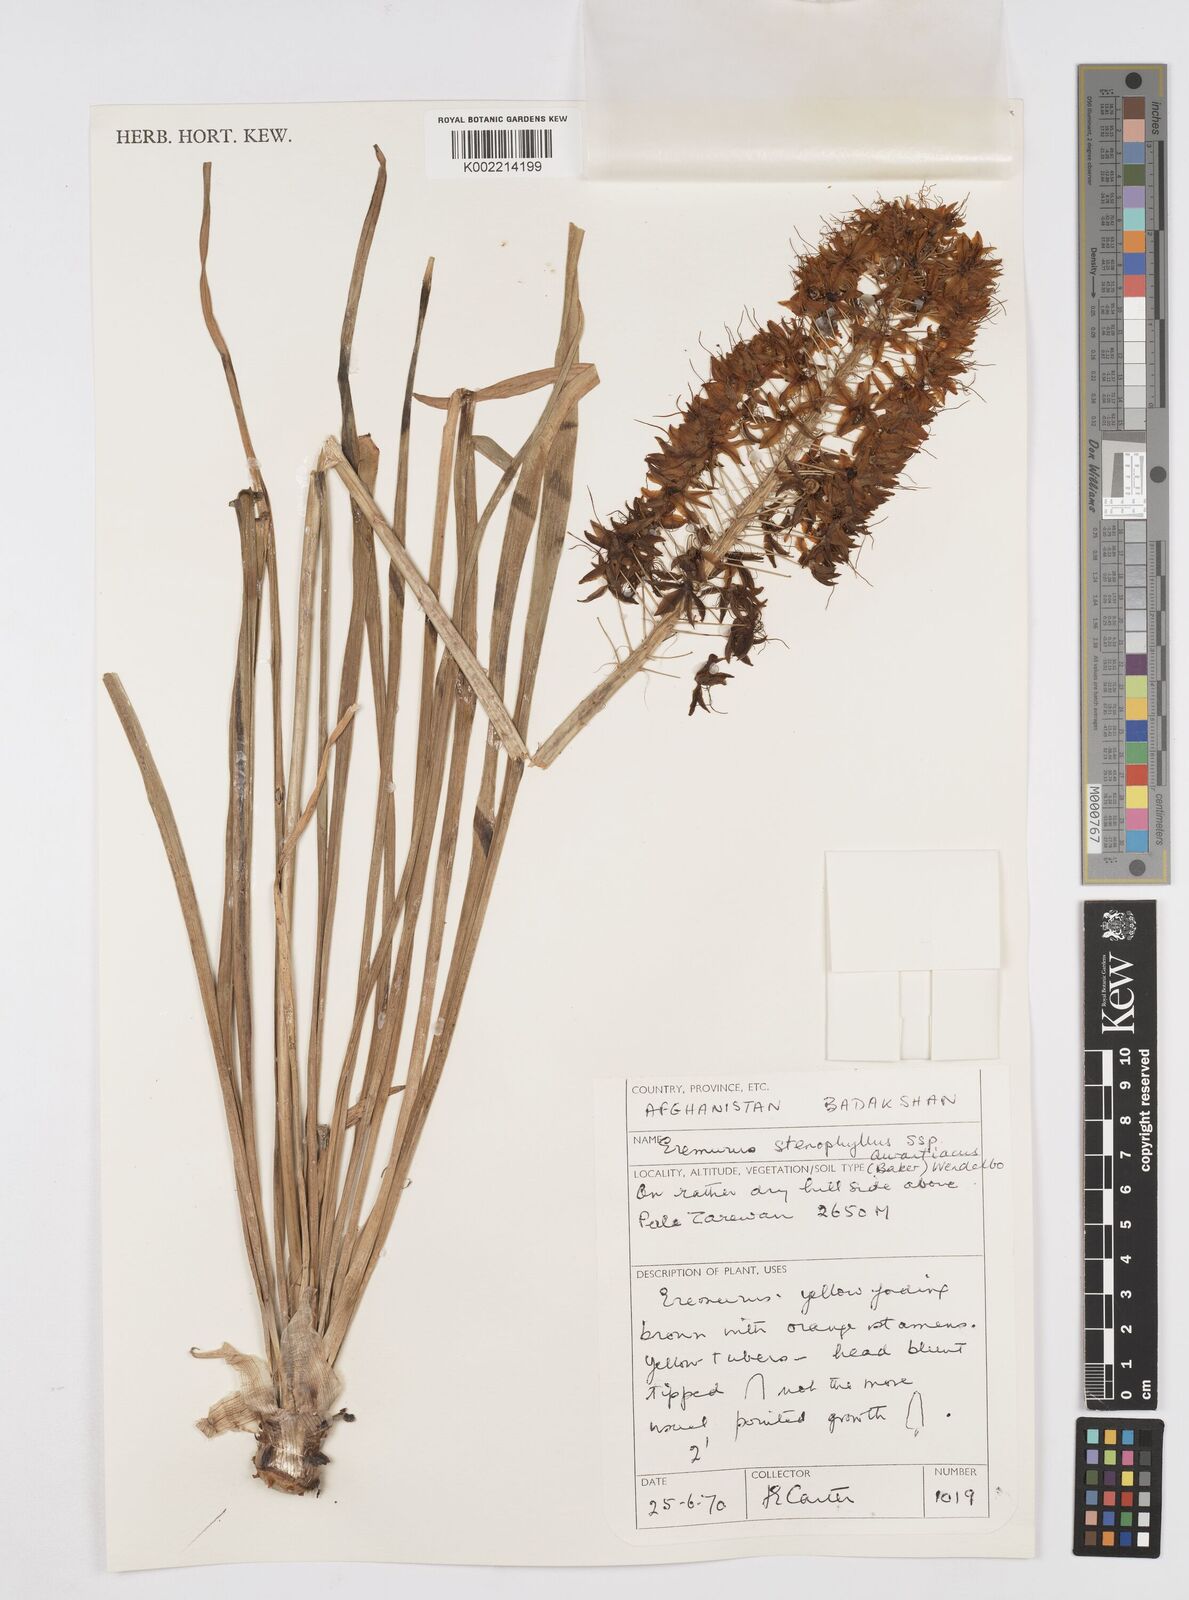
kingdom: Plantae
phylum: Tracheophyta
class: Liliopsida
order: Asparagales
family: Asphodelaceae
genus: Eremurus
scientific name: Eremurus stenophyllus
